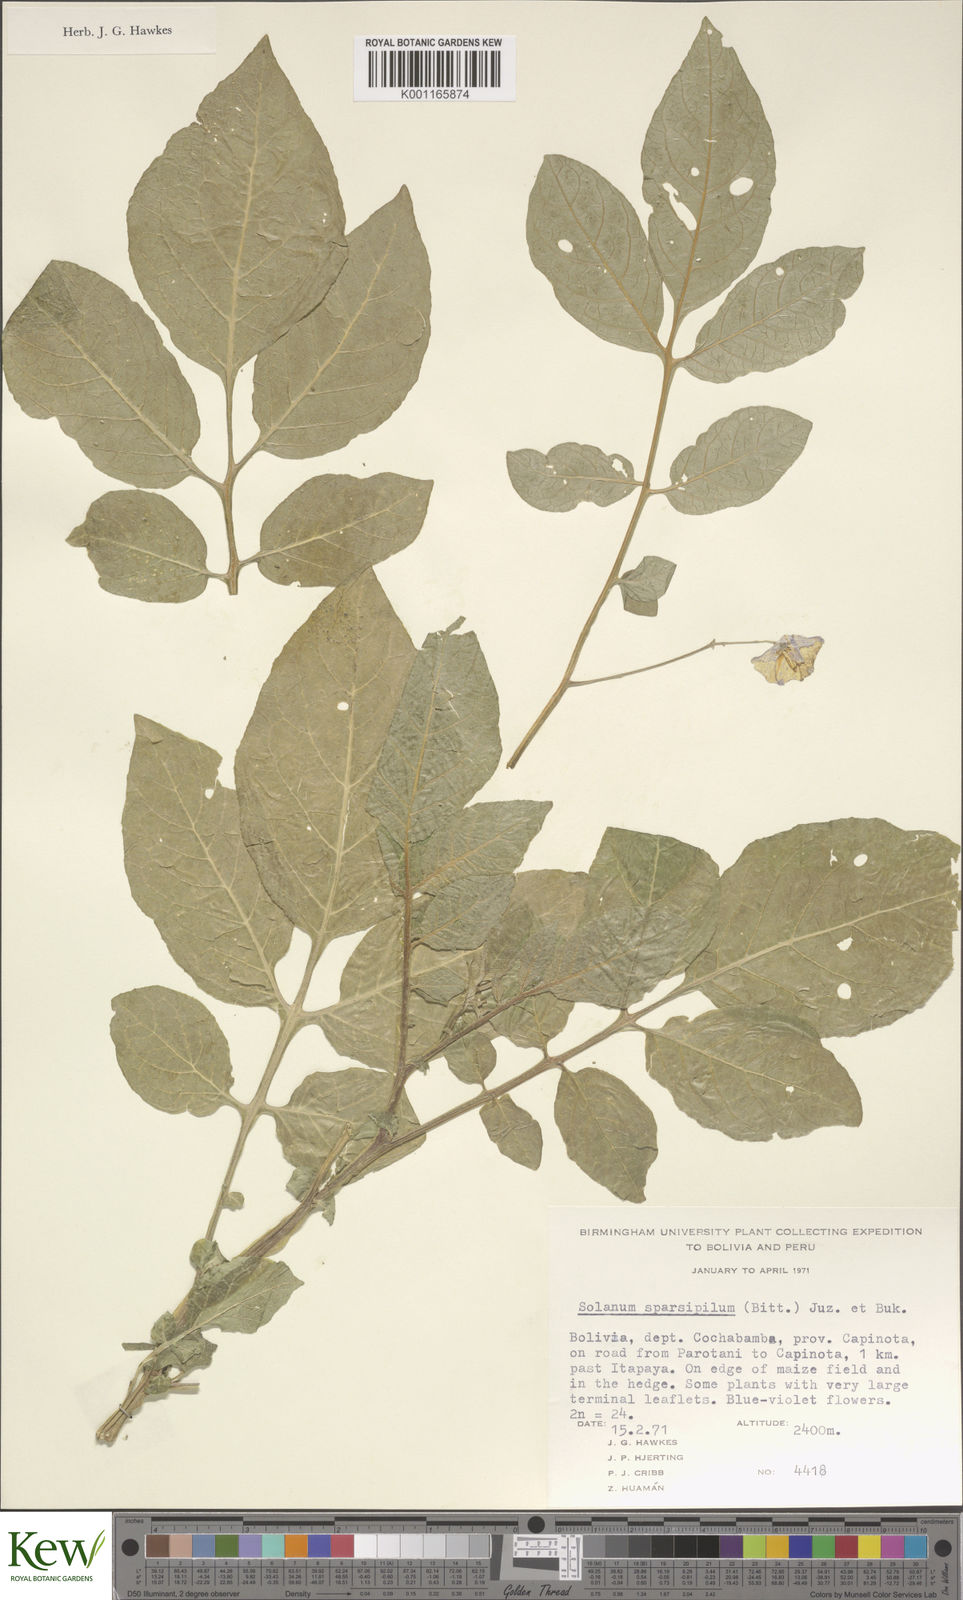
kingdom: Plantae
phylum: Tracheophyta
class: Magnoliopsida
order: Solanales
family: Solanaceae
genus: Solanum
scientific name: Solanum brevicaule
